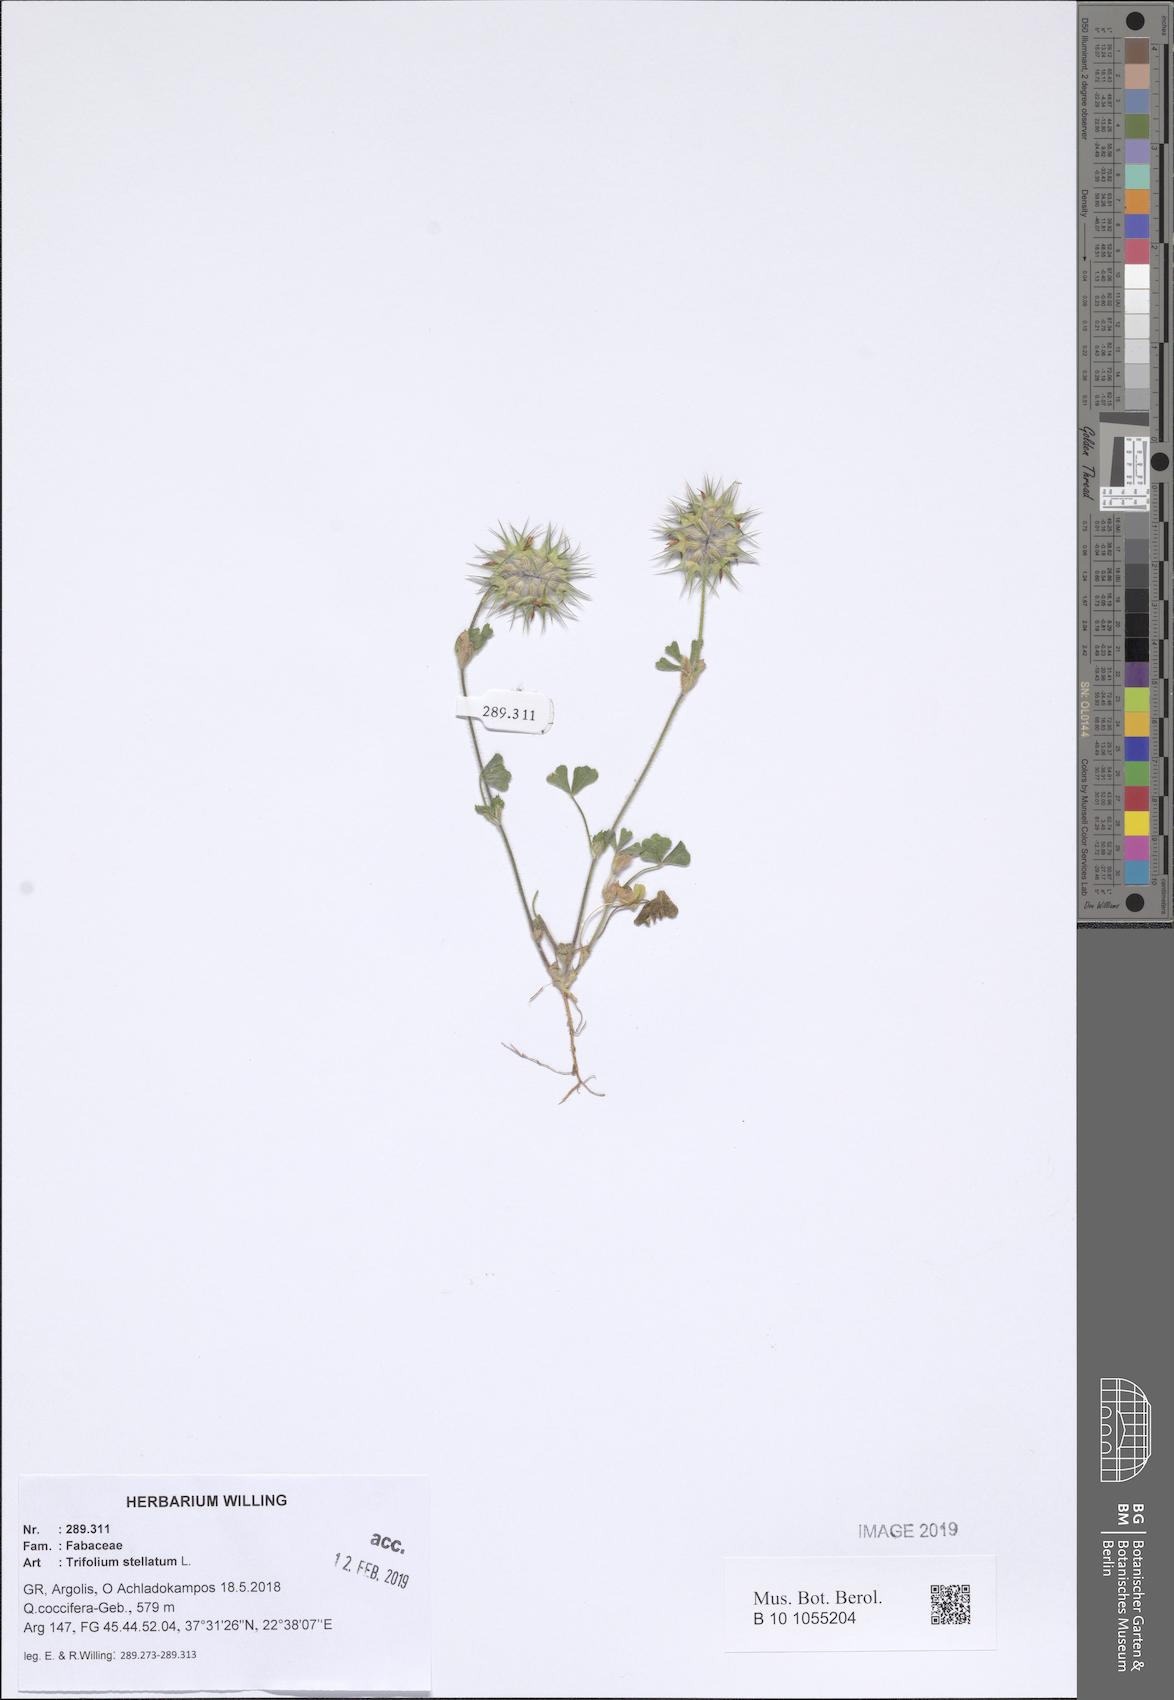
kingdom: Plantae
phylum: Tracheophyta
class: Magnoliopsida
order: Fabales
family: Fabaceae
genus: Trifolium
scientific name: Trifolium stellatum
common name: Starry clover
